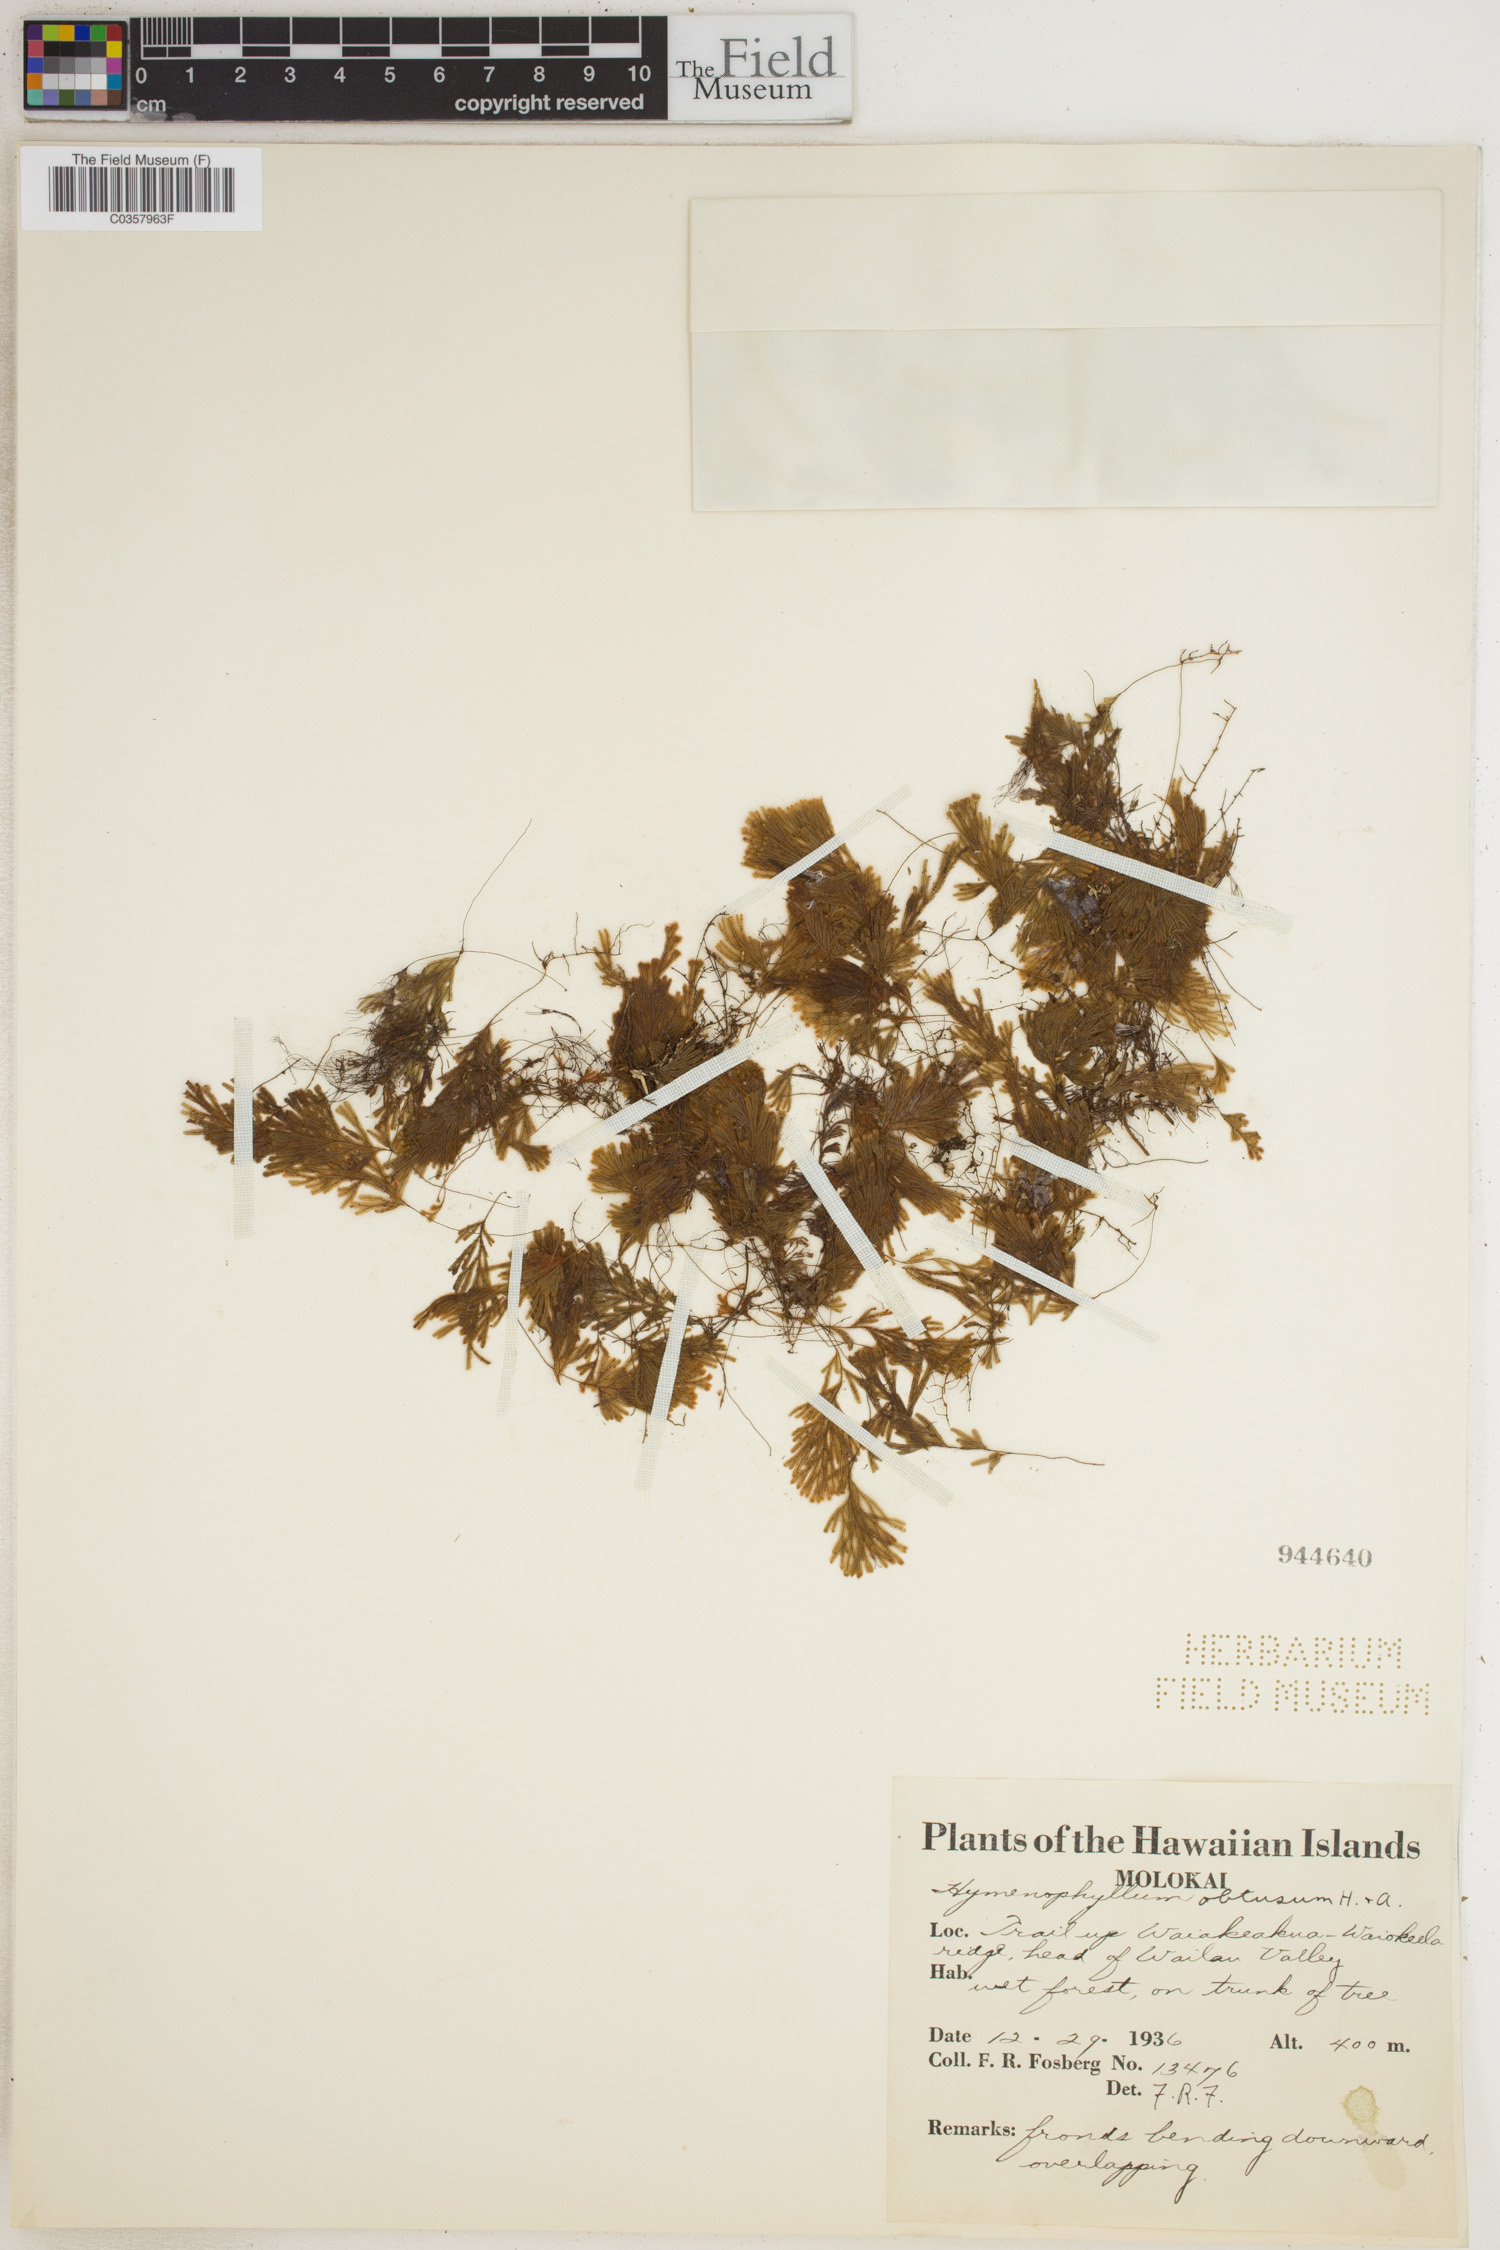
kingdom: Plantae
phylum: Tracheophyta
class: Polypodiopsida
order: Hymenophyllales
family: Hymenophyllaceae
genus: Hymenophyllum
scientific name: Hymenophyllum obtusum
